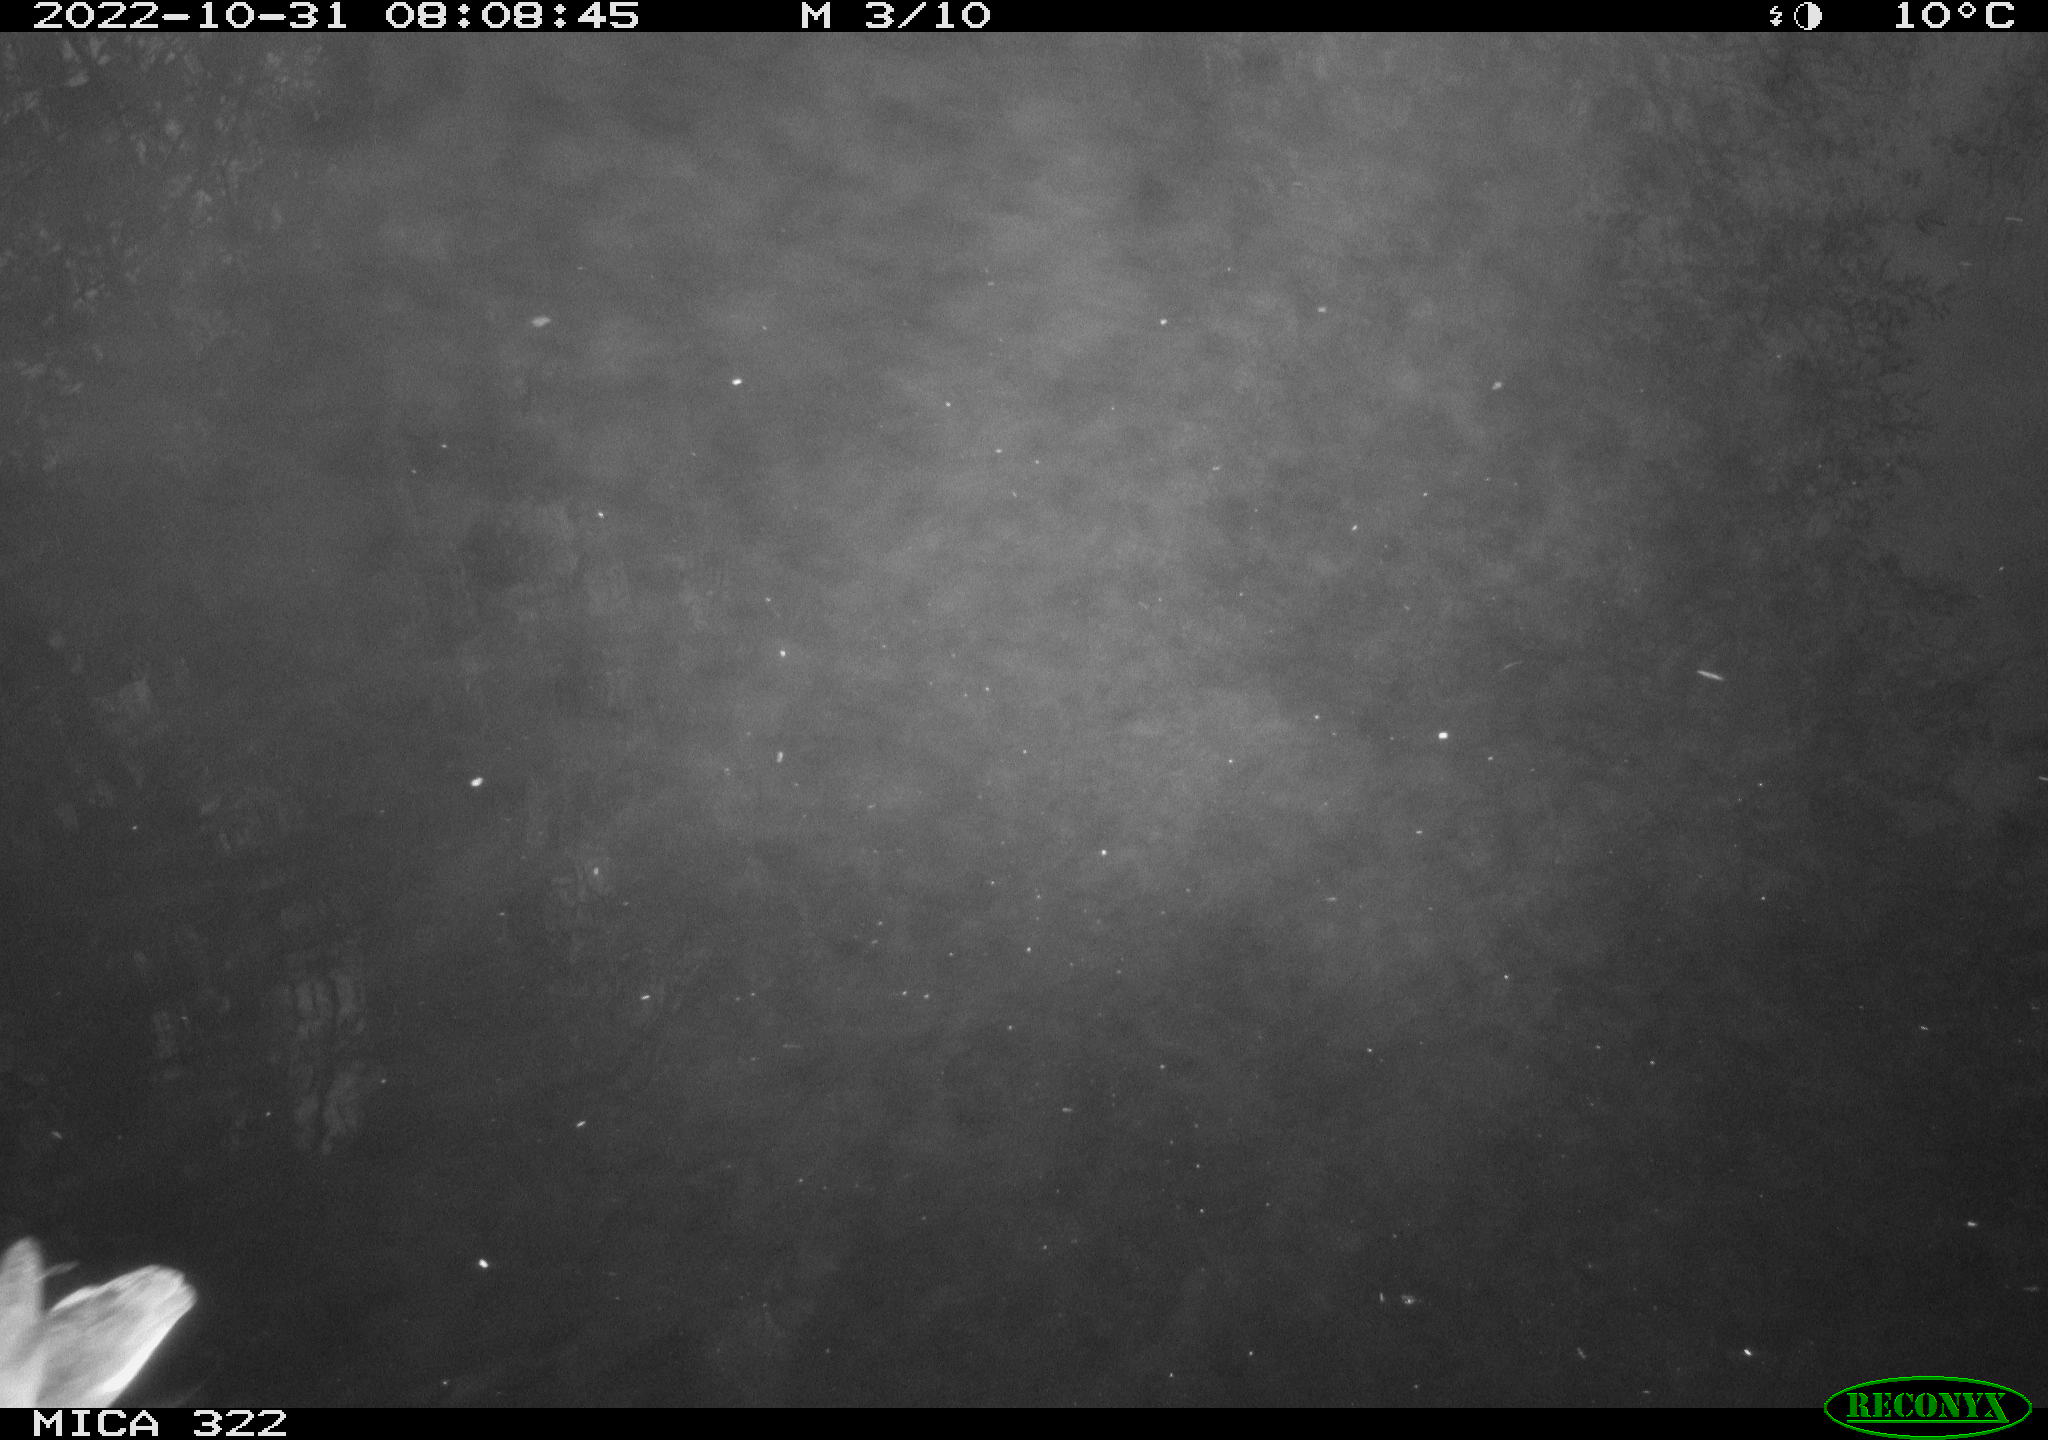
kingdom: Animalia
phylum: Chordata
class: Aves
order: Gruiformes
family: Rallidae
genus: Gallinula
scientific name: Gallinula chloropus
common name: Common moorhen
